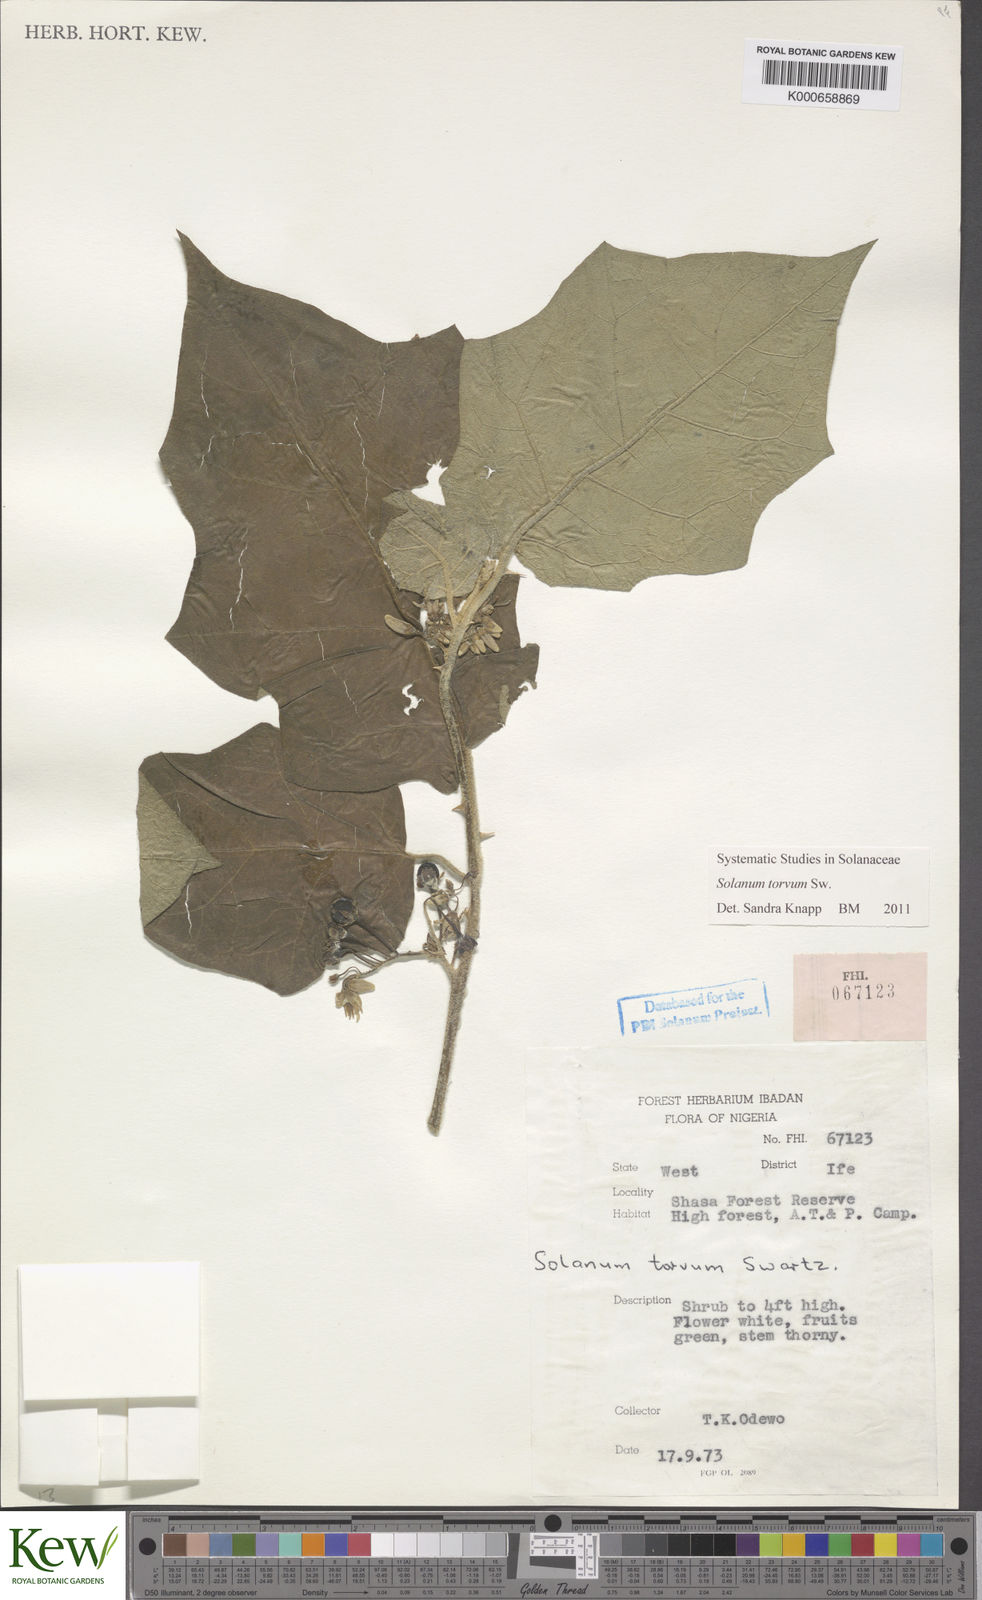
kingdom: Plantae
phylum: Tracheophyta
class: Magnoliopsida
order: Solanales
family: Solanaceae
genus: Solanum
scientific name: Solanum torvum
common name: Turkey berry
